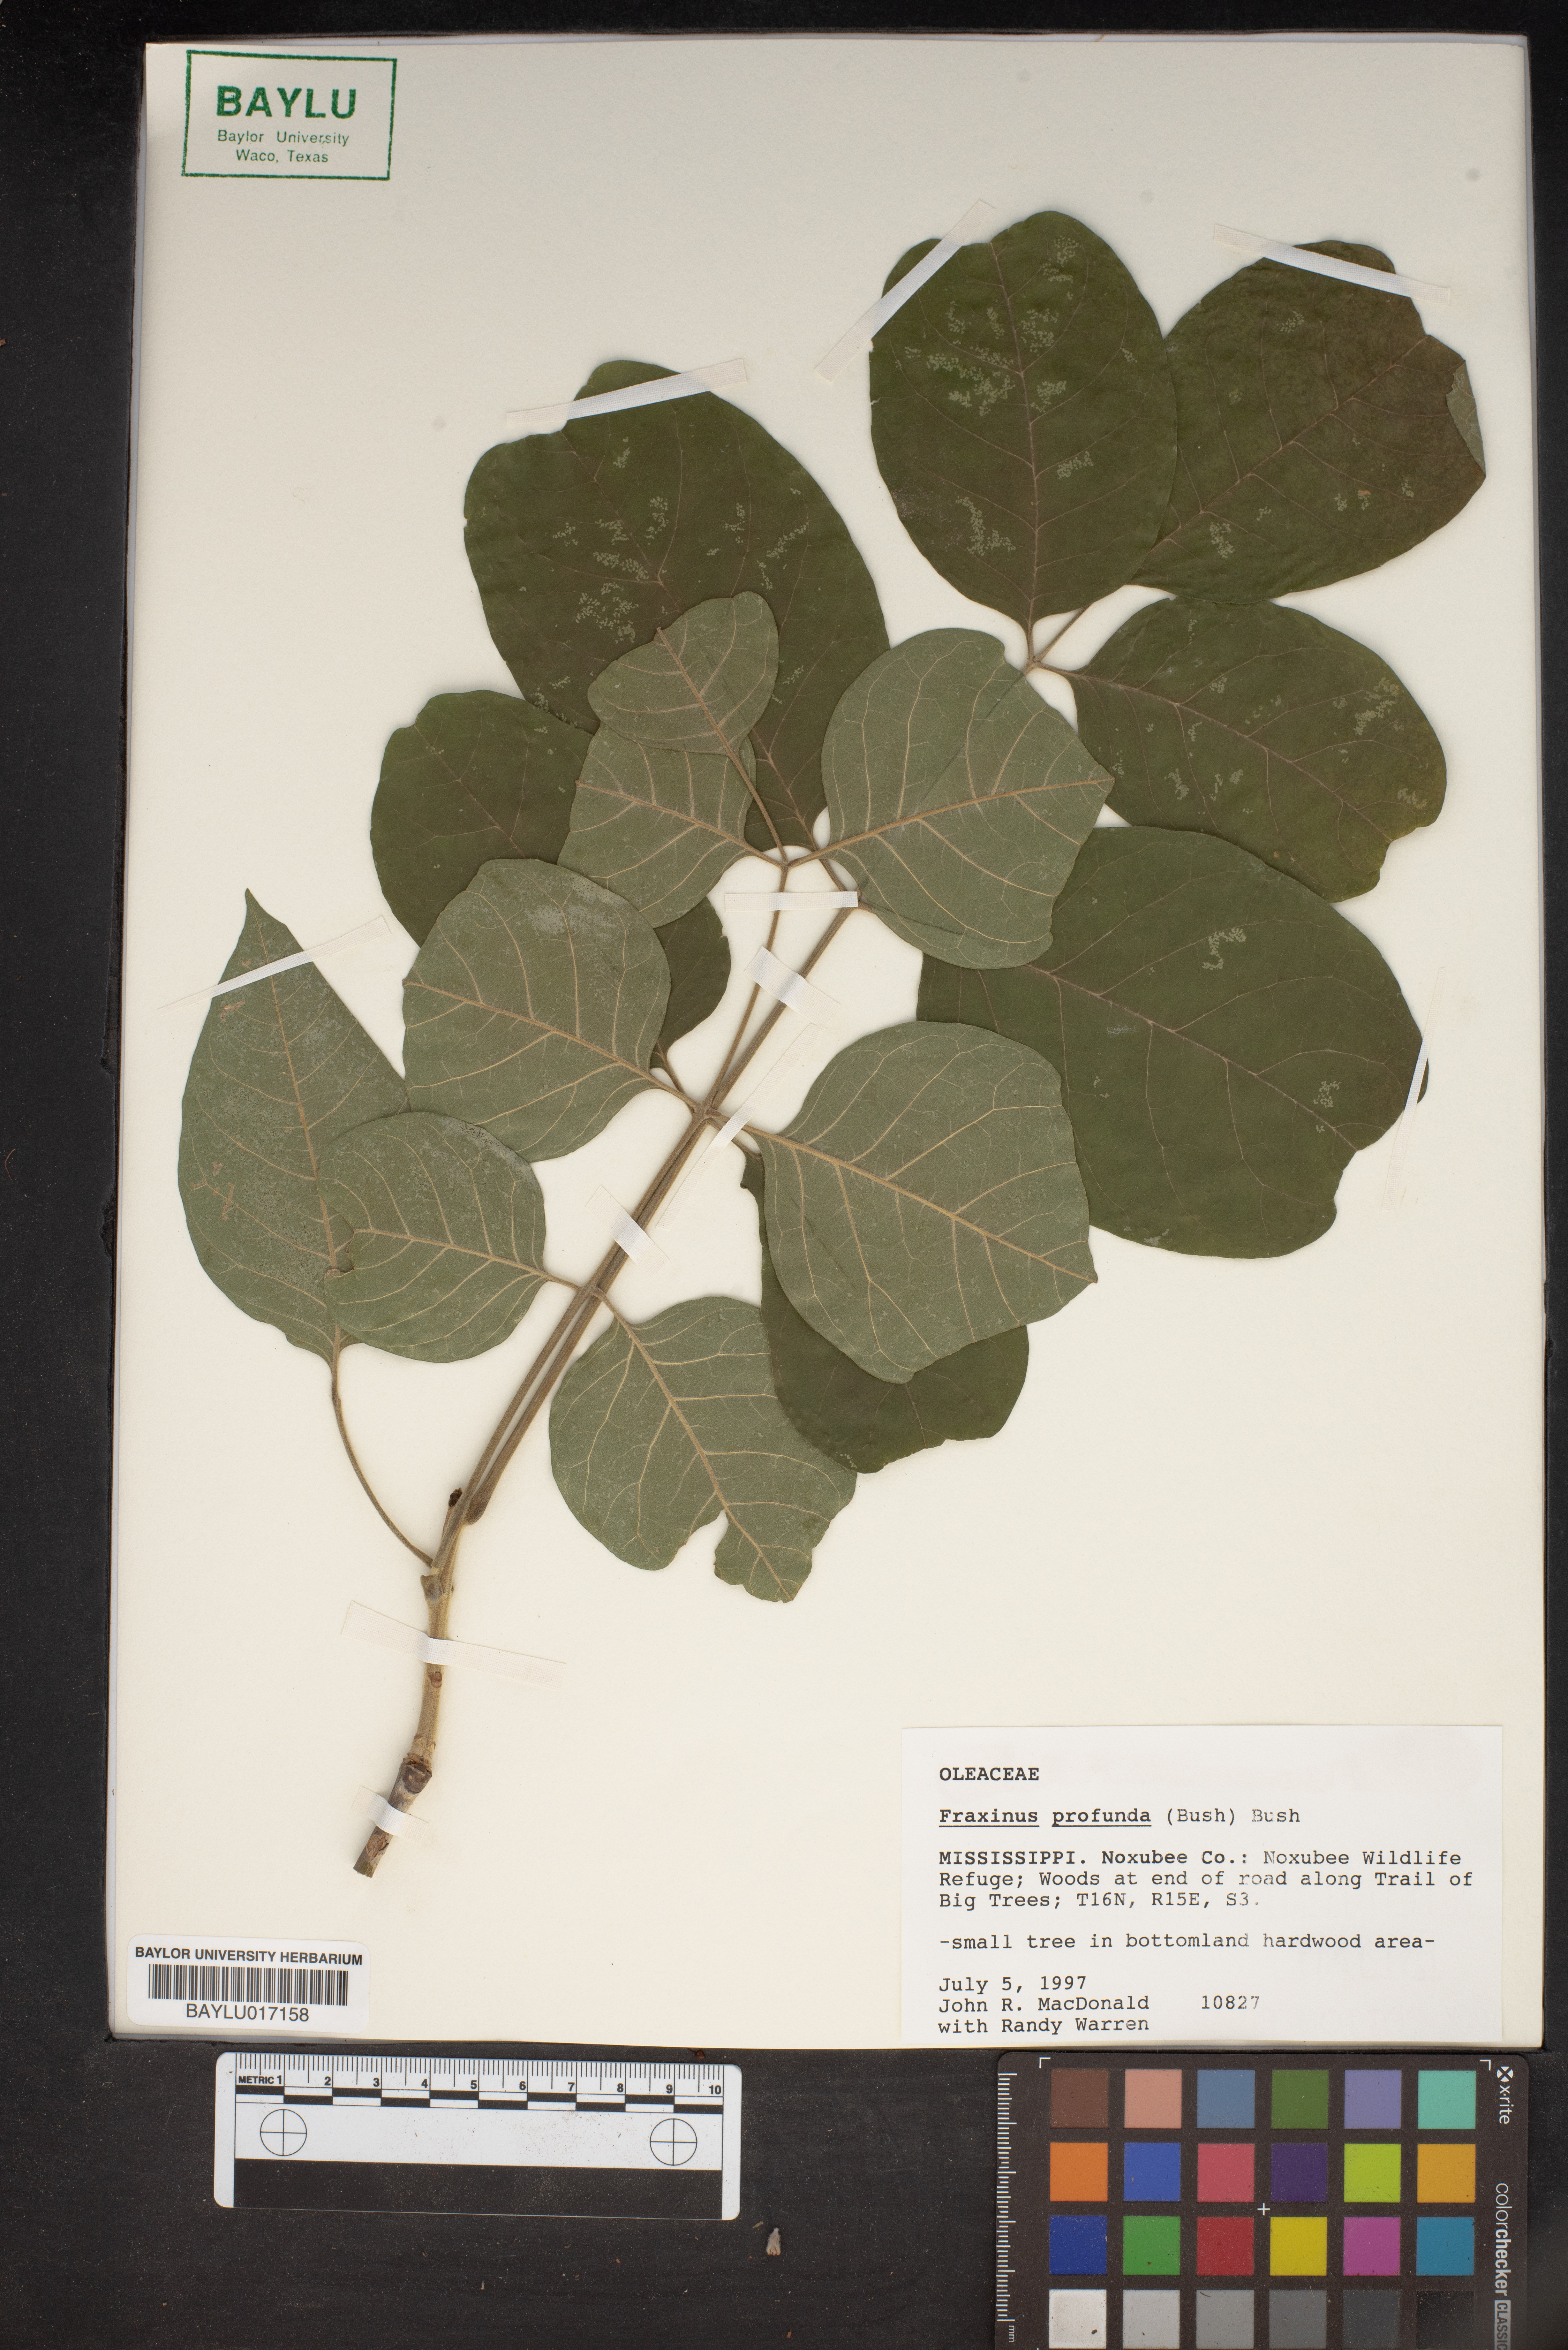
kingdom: Plantae
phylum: Tracheophyta
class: Magnoliopsida
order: Lamiales
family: Oleaceae
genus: Fraxinus
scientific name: Fraxinus profunda
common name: Pumpkin ash
